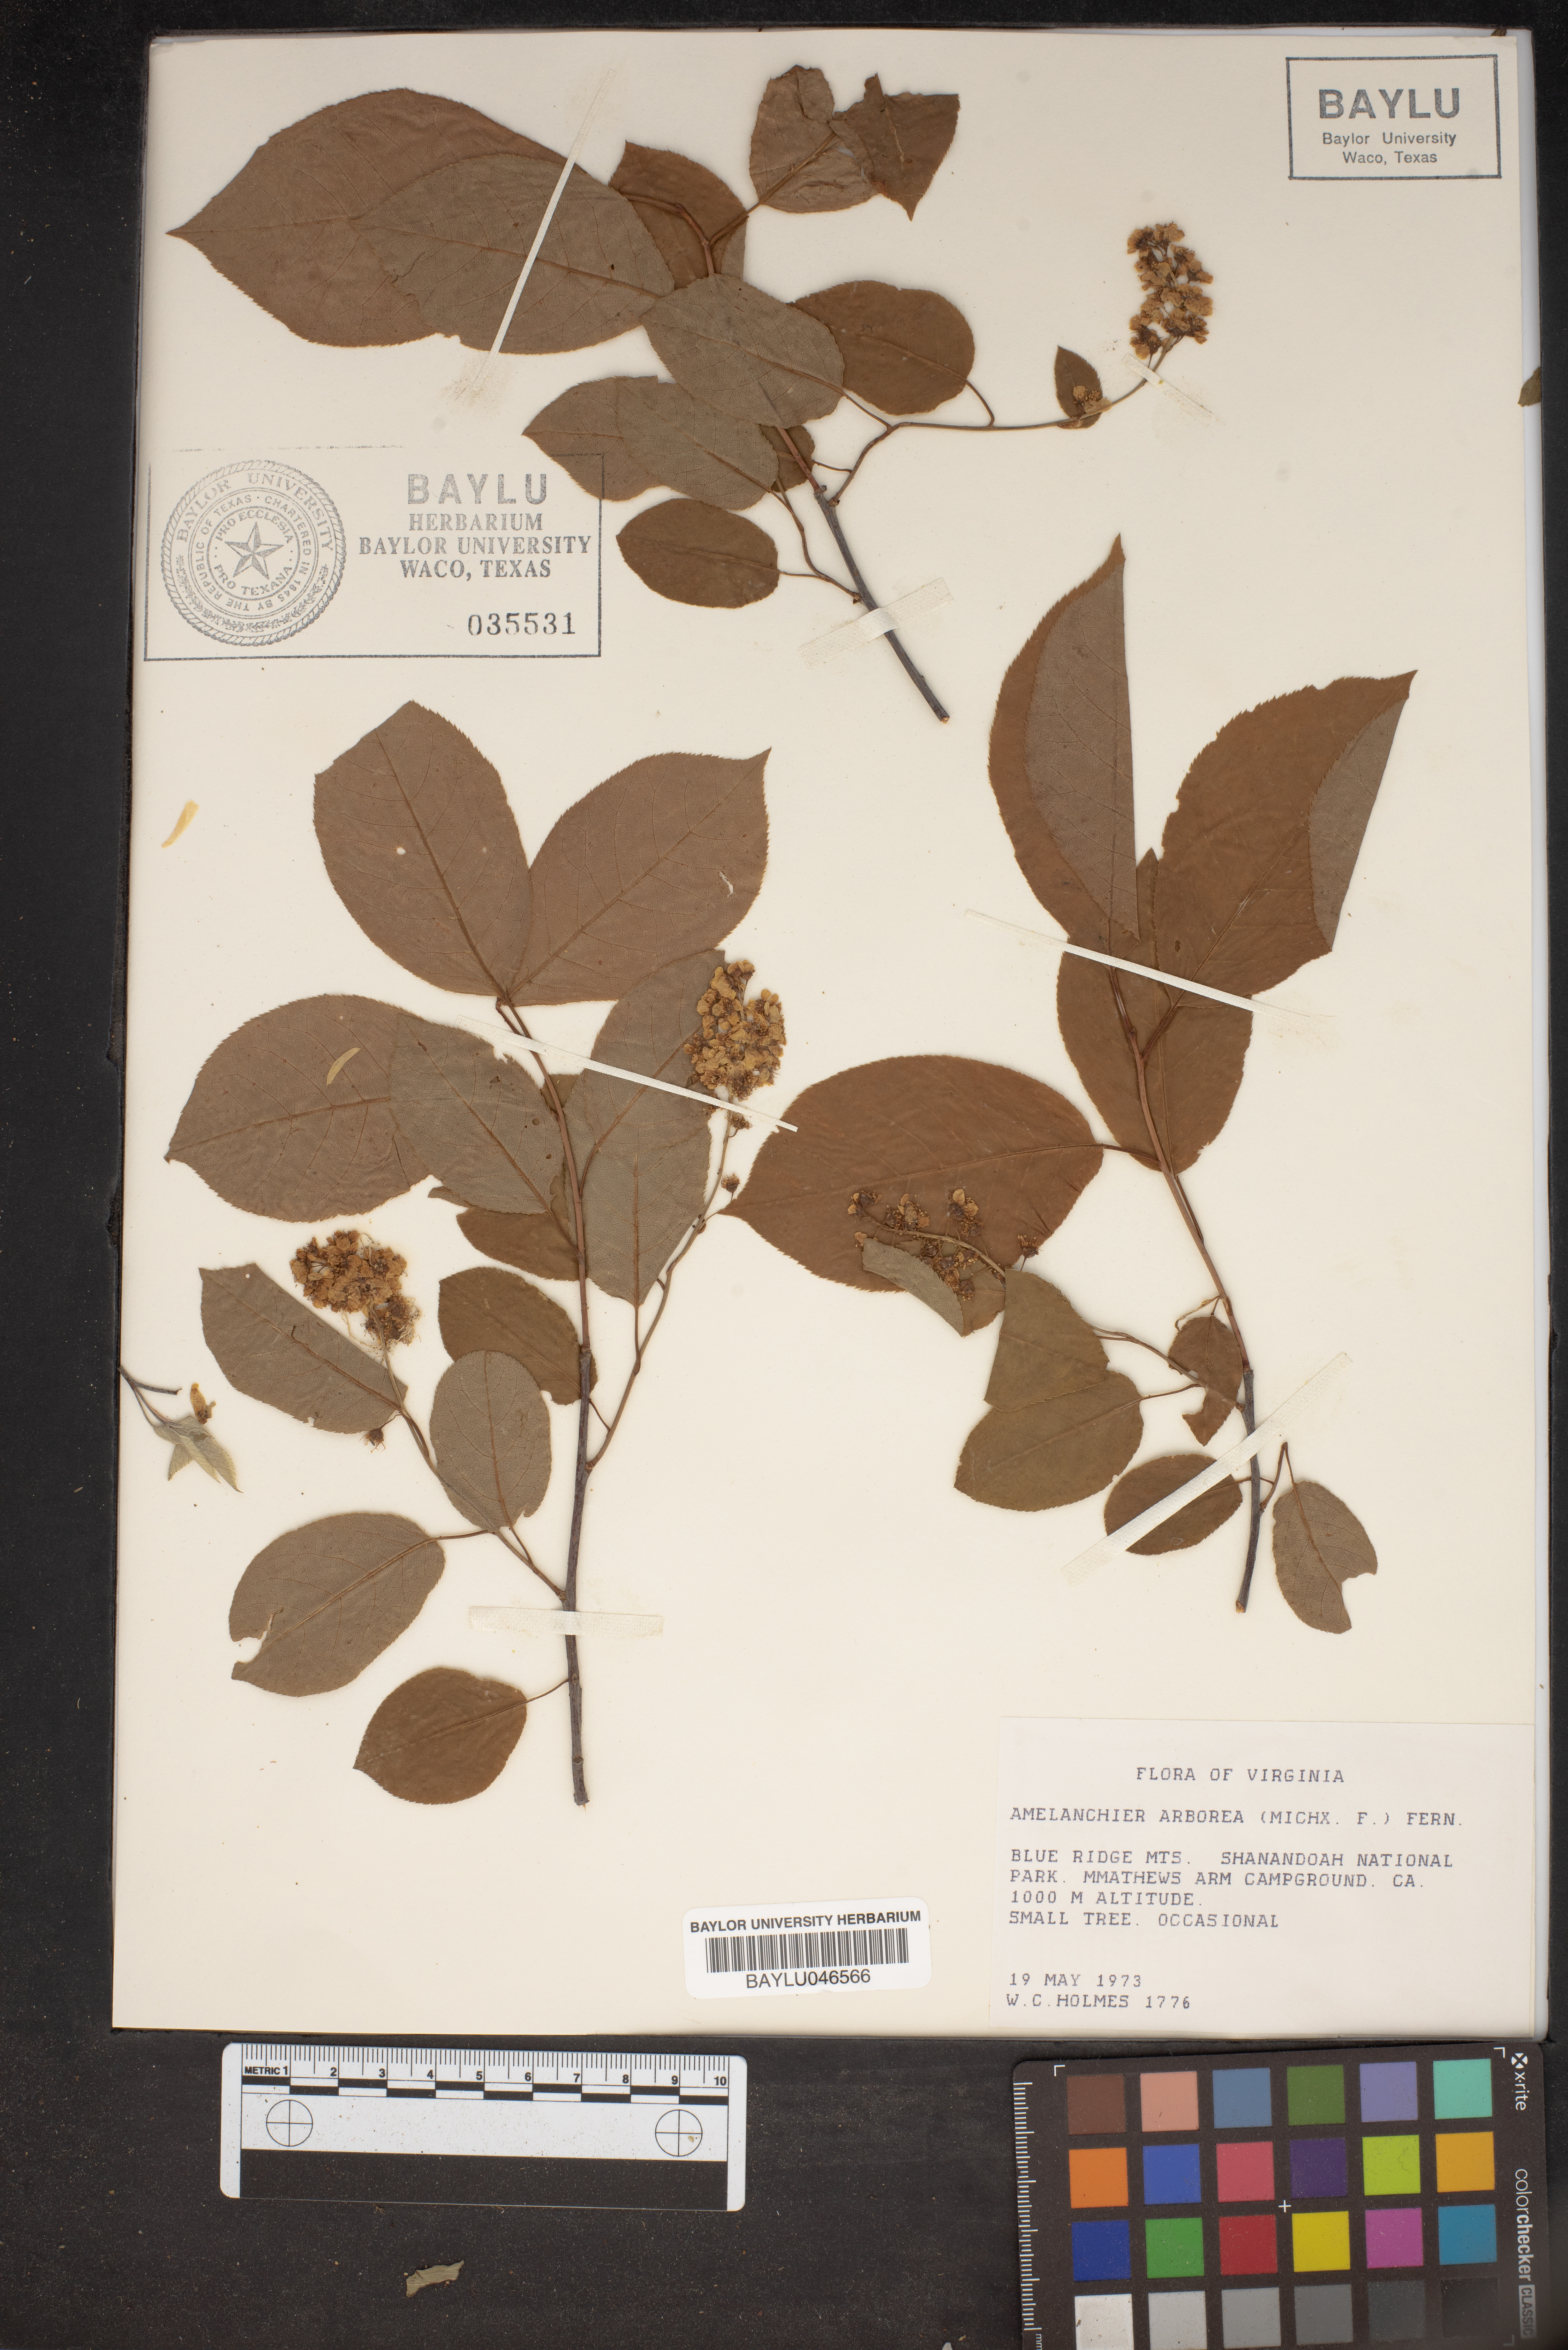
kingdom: Plantae
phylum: Tracheophyta
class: Magnoliopsida
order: Rosales
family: Rosaceae
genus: Amelanchier
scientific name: Amelanchier arborea
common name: Downy serviceberry
